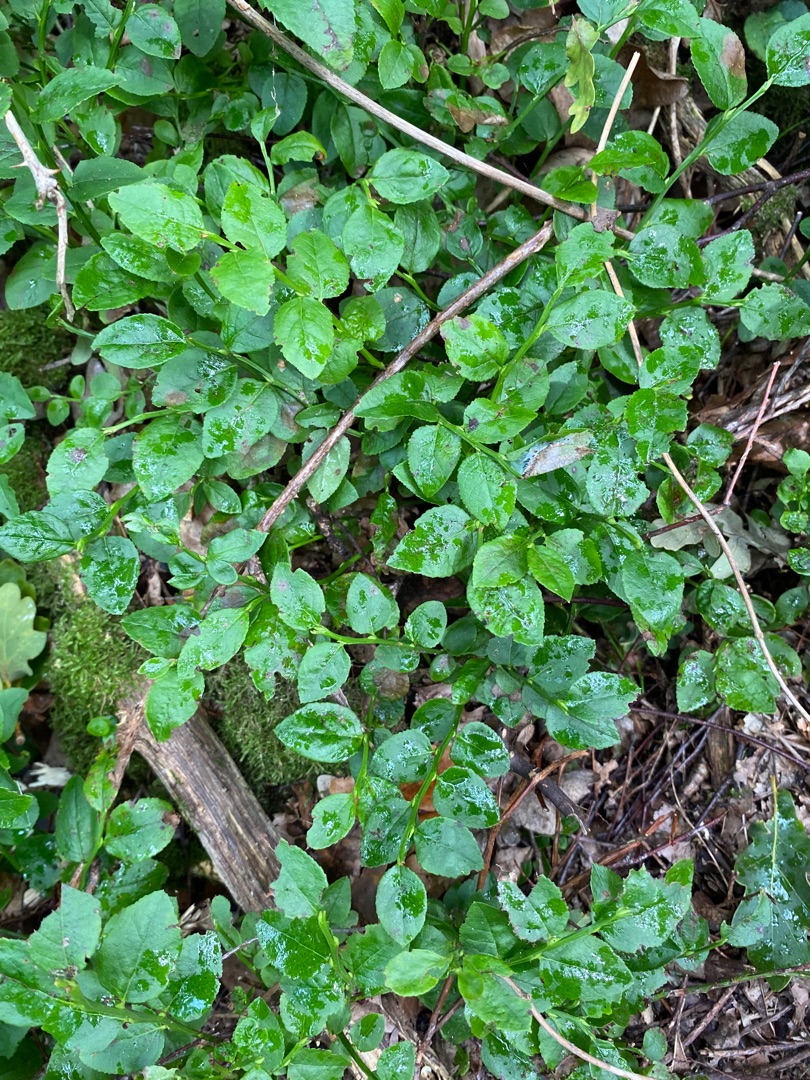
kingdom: Plantae
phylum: Tracheophyta
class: Magnoliopsida
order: Ericales
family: Ericaceae
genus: Vaccinium
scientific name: Vaccinium myrtillus
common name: Blåbær
